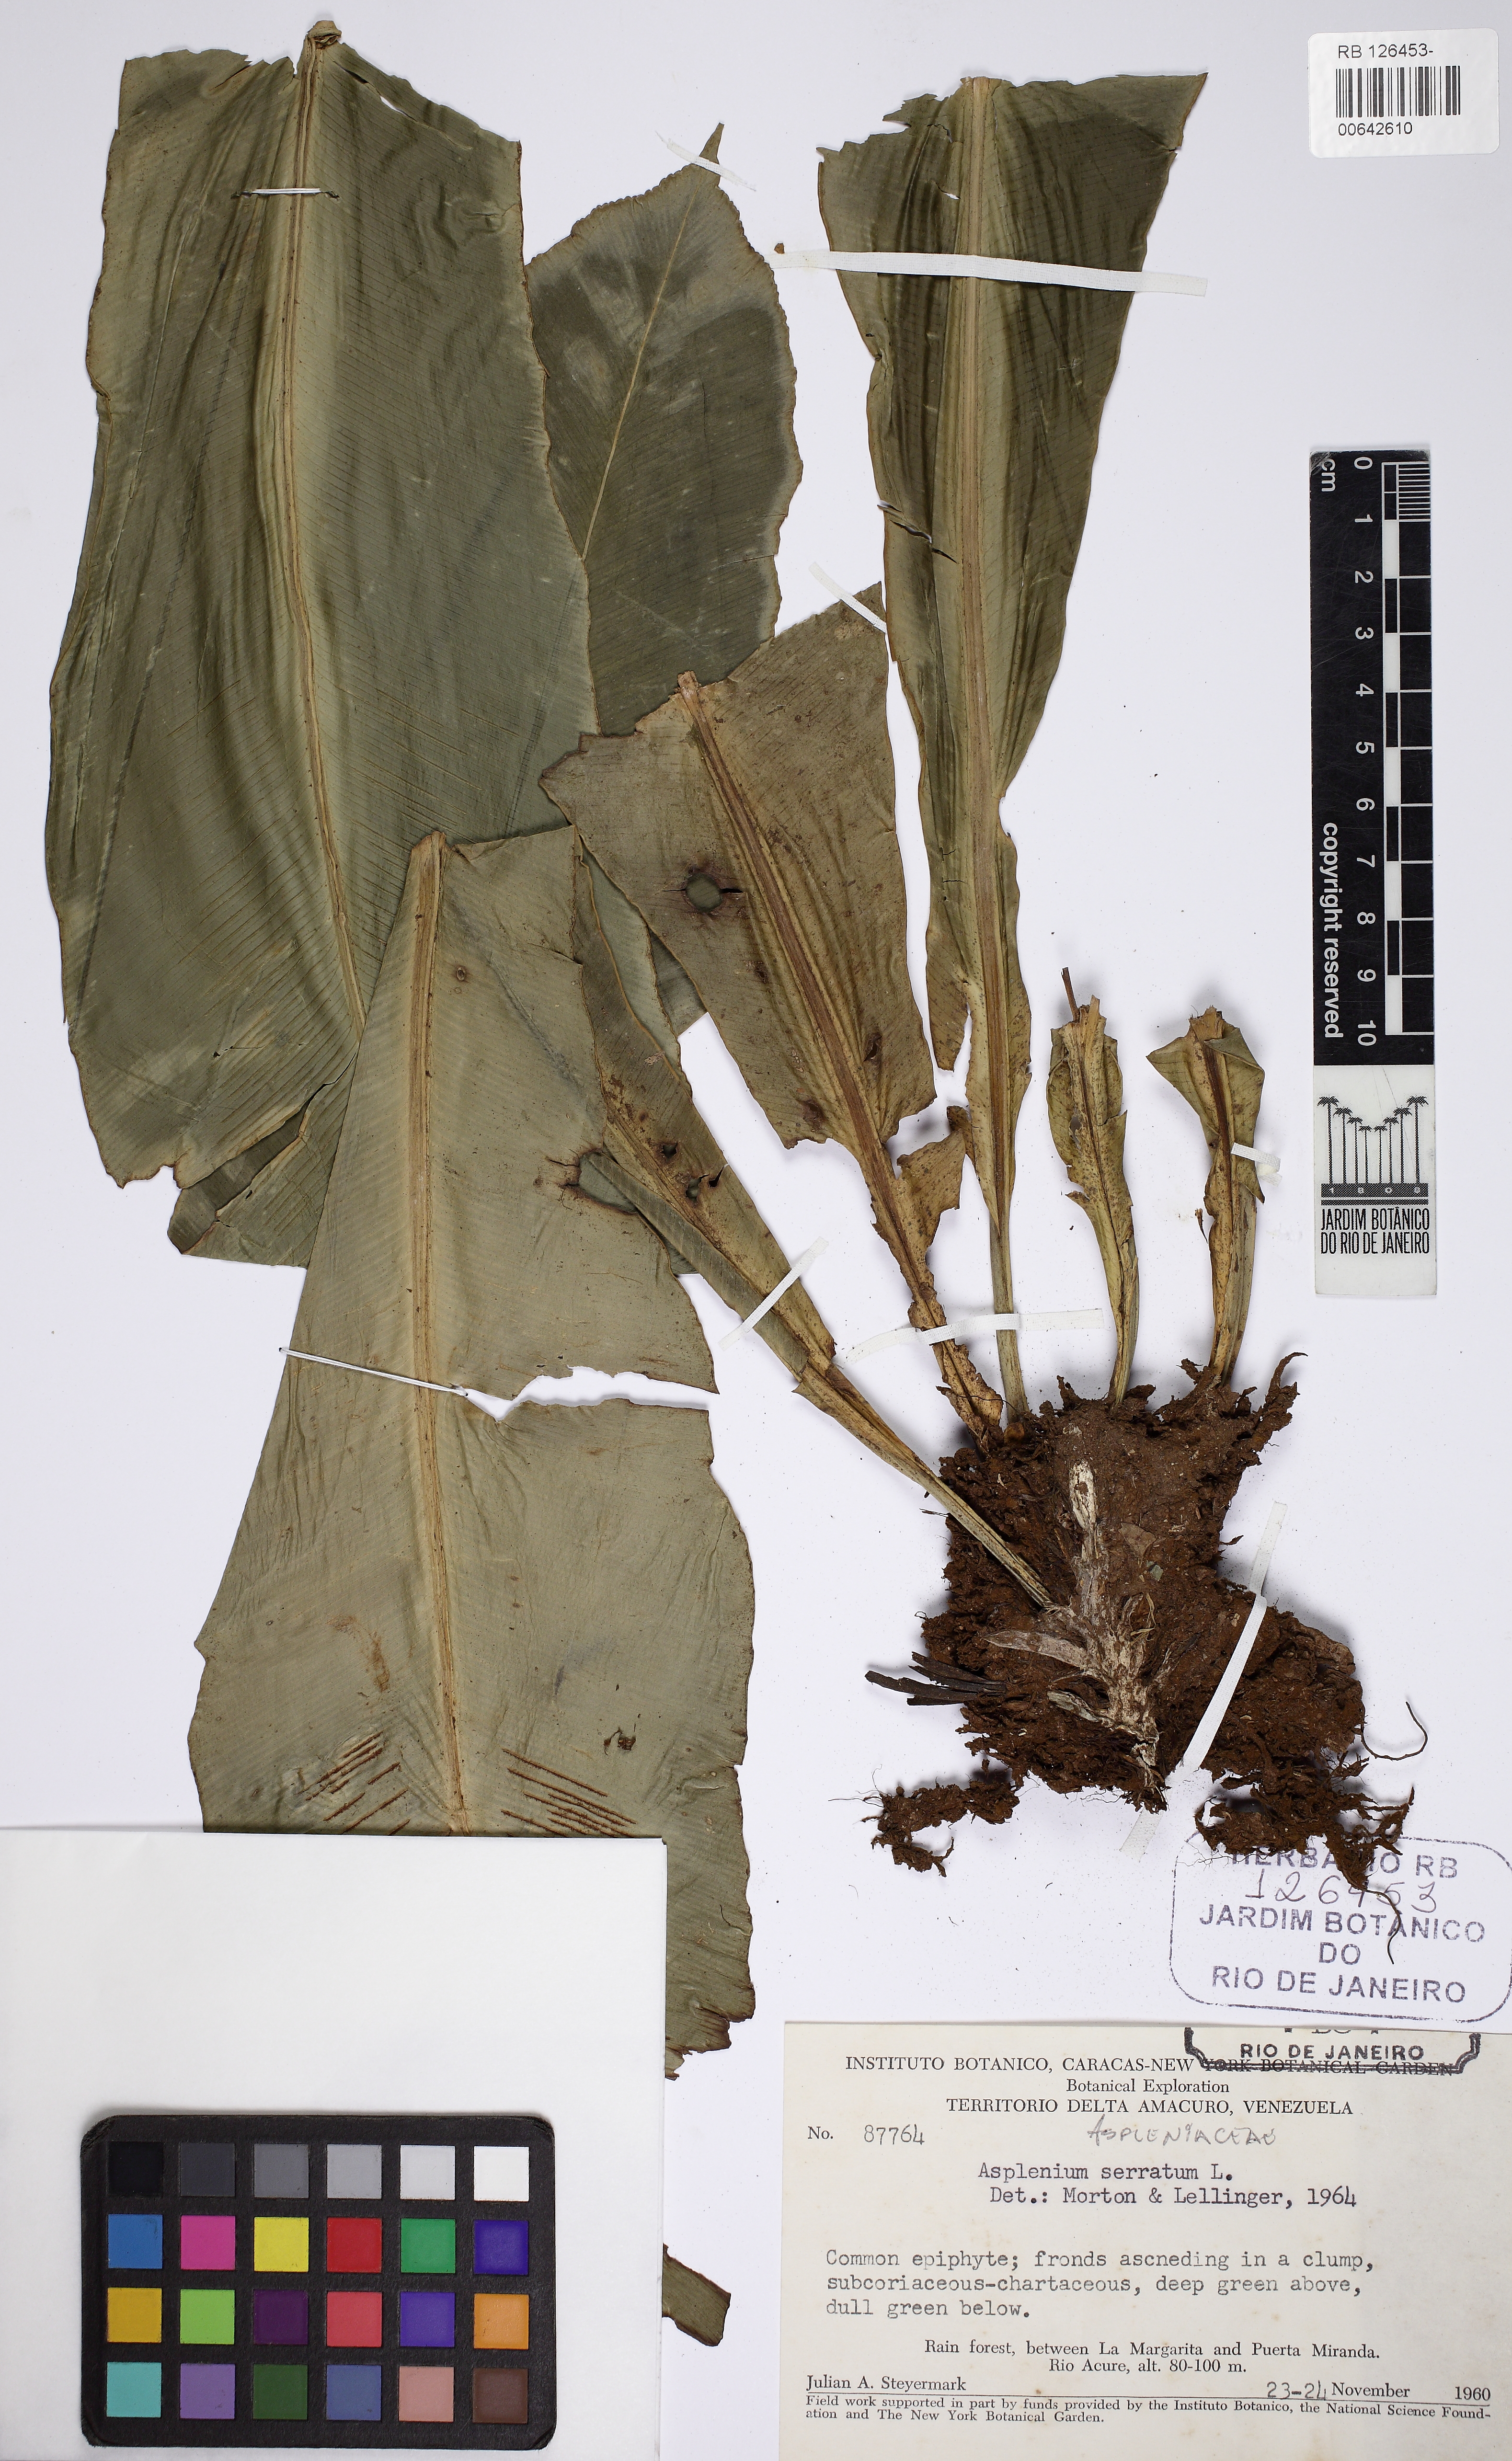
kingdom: Plantae
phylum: Tracheophyta
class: Polypodiopsida
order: Polypodiales
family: Aspleniaceae
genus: Asplenium
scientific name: Asplenium serratum
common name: Wild birdnest fern
